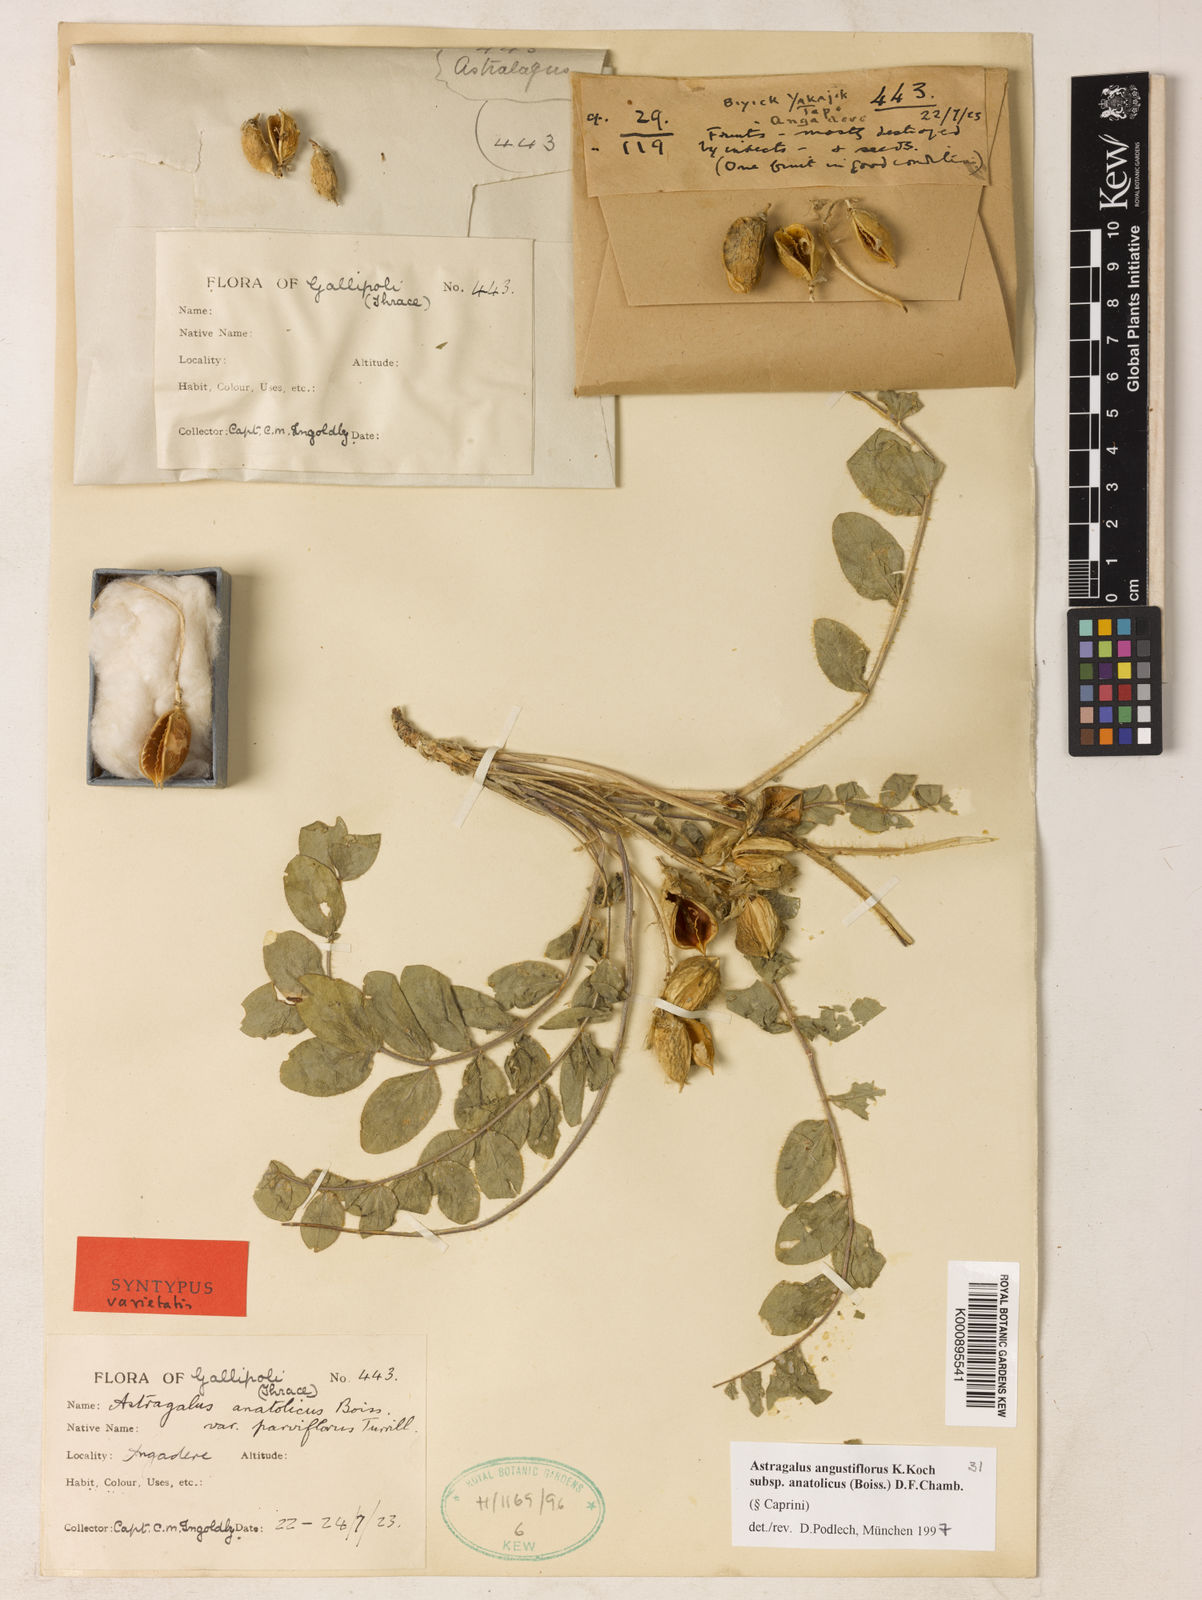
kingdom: Plantae
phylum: Tracheophyta
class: Magnoliopsida
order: Fabales
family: Fabaceae
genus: Astragalus
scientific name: Astragalus angustiflorus
